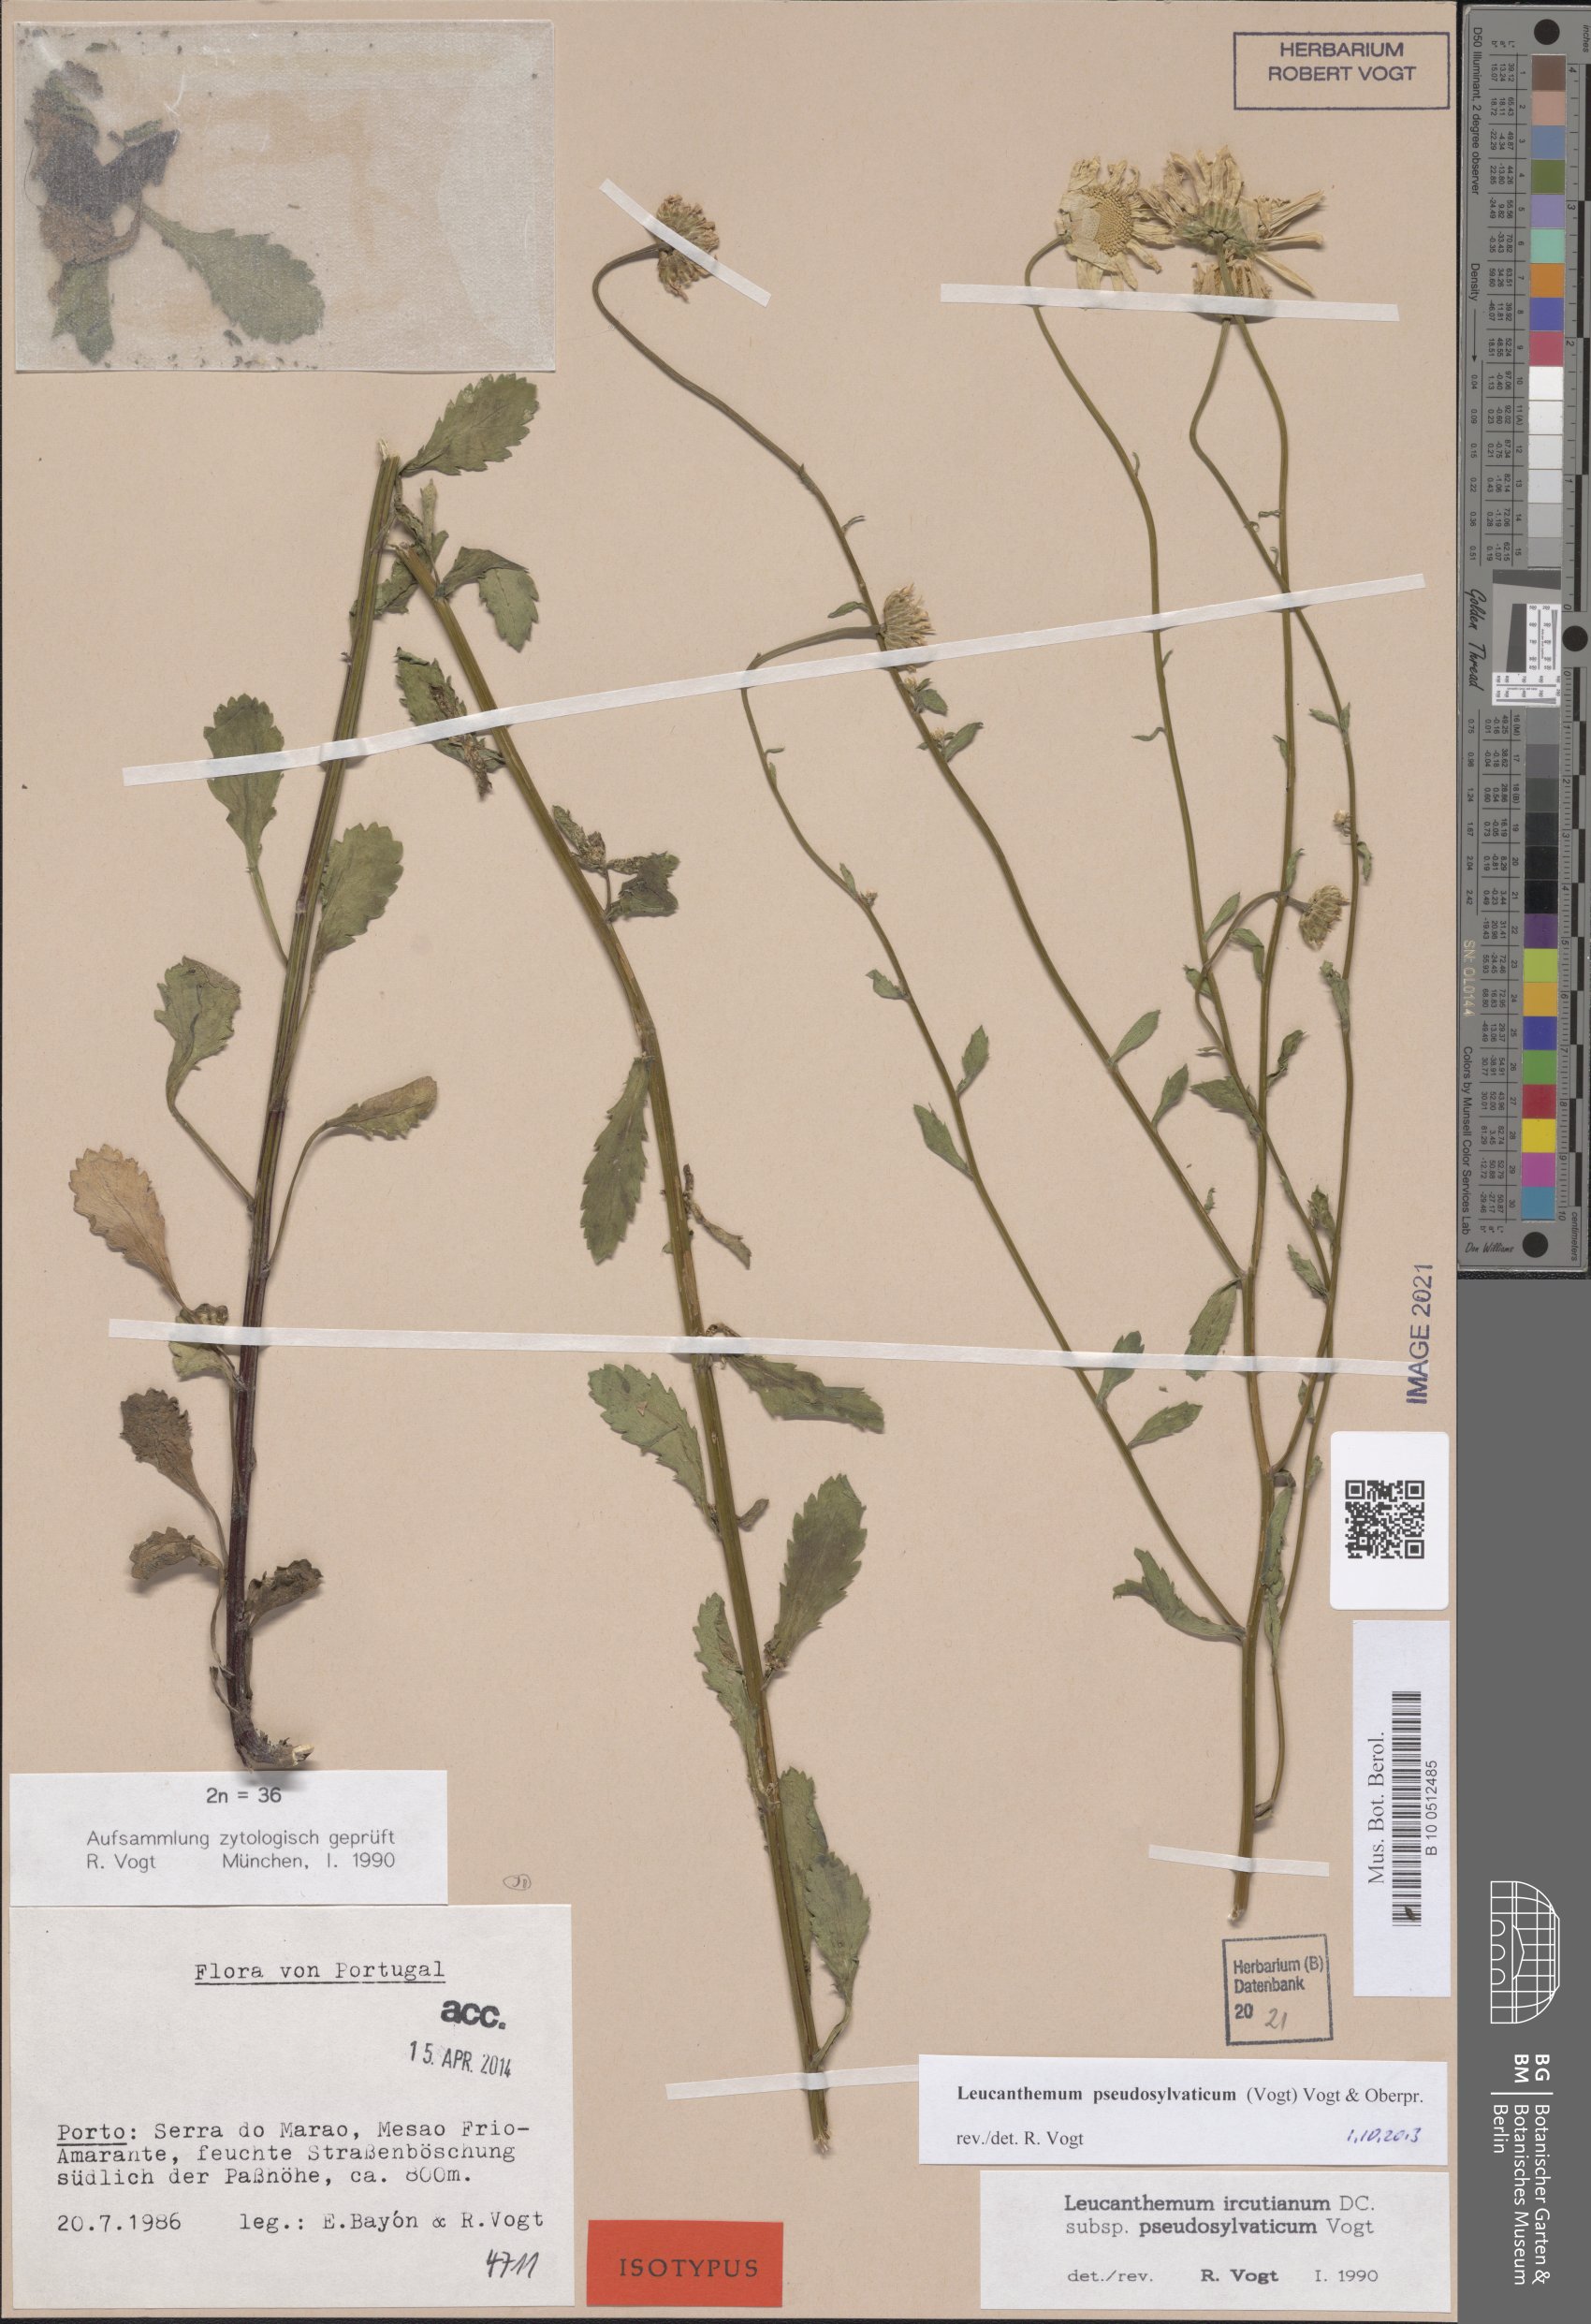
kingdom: Plantae
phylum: Tracheophyta
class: Magnoliopsida
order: Asterales
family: Asteraceae
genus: Leucanthemum
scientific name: Leucanthemum pseudosylvaticum
